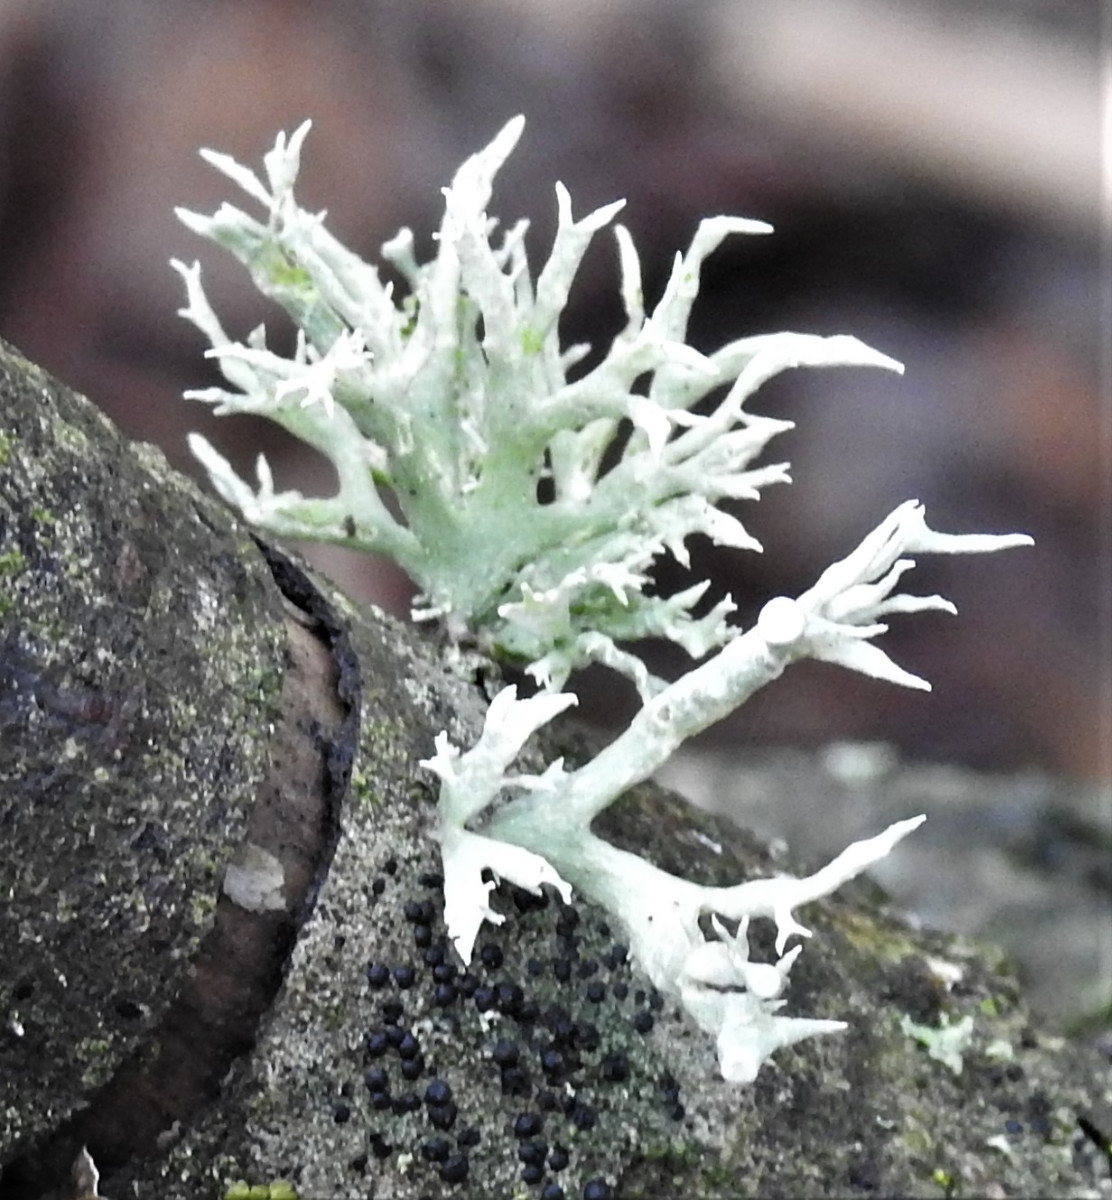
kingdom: Fungi
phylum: Ascomycota
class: Lecanoromycetes
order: Lecanorales
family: Ramalinaceae
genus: Ramalina
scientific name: Ramalina fastigiata
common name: tue-grenlav
